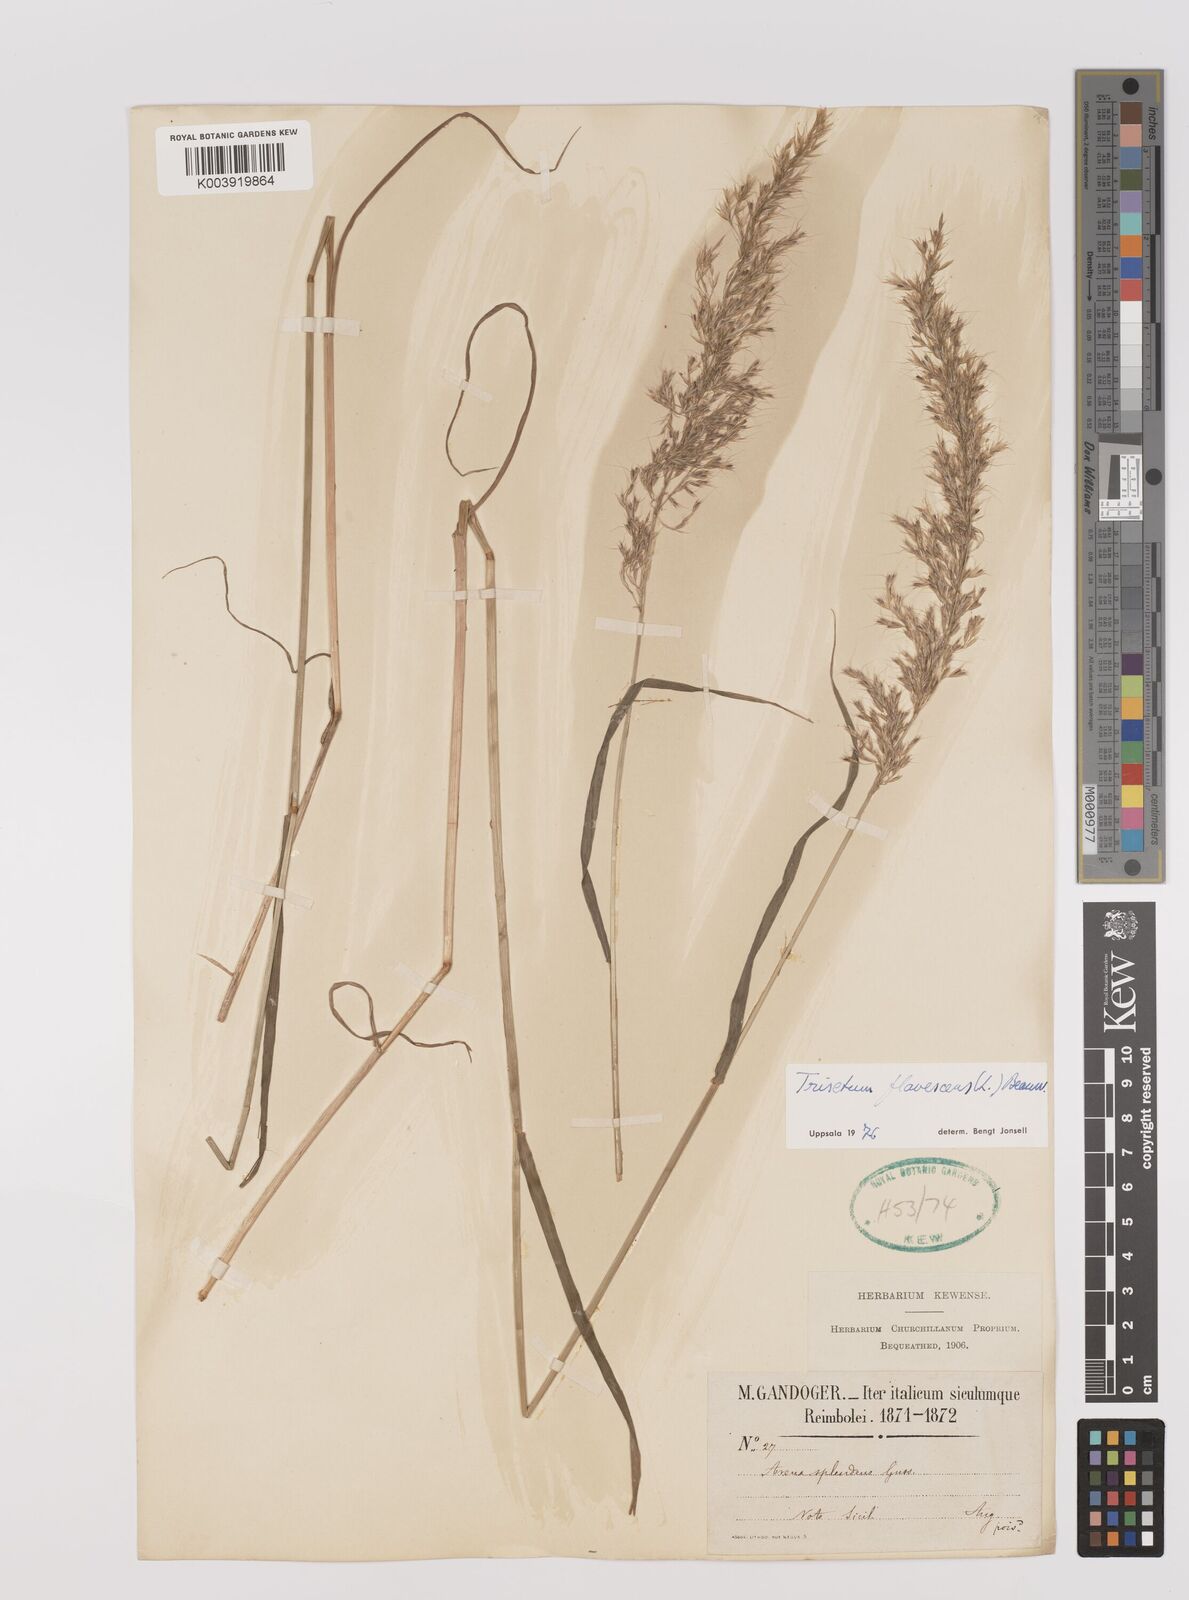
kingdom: Plantae
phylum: Tracheophyta
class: Liliopsida
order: Poales
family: Poaceae
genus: Trisetum
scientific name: Trisetum flavescens
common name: Yellow oat-grass
